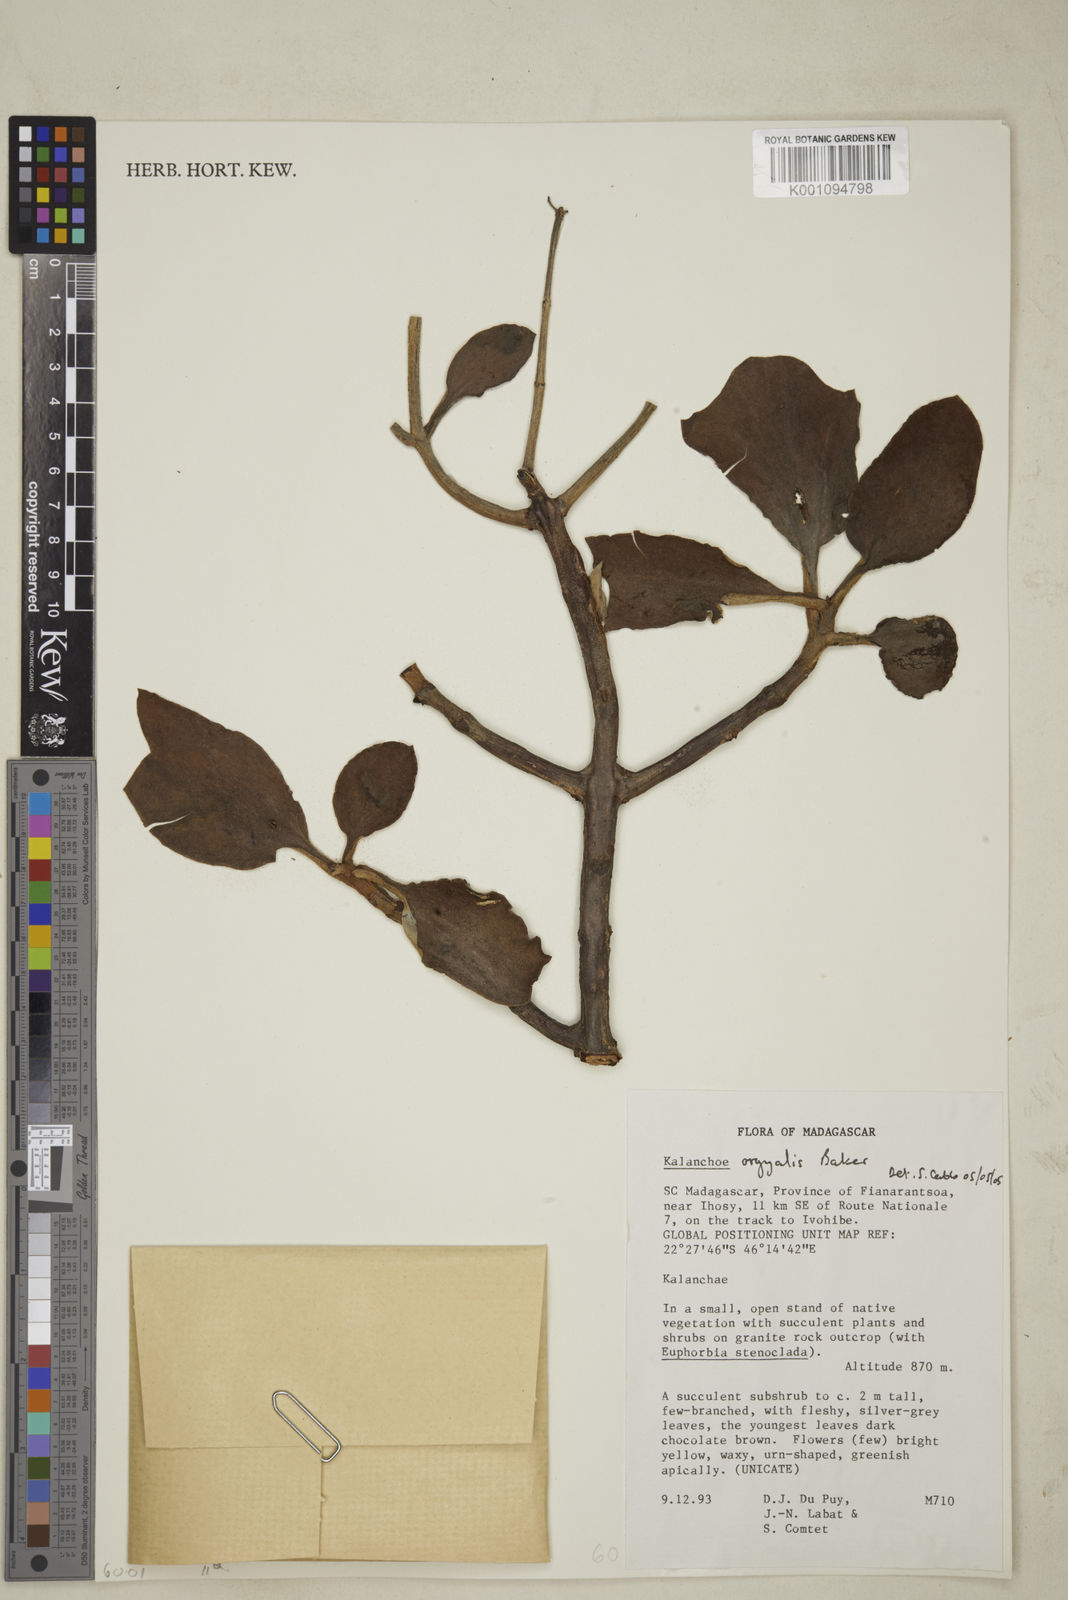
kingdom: Plantae
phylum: Tracheophyta
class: Magnoliopsida
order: Saxifragales
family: Crassulaceae
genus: Kalanchoe
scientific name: Kalanchoe
